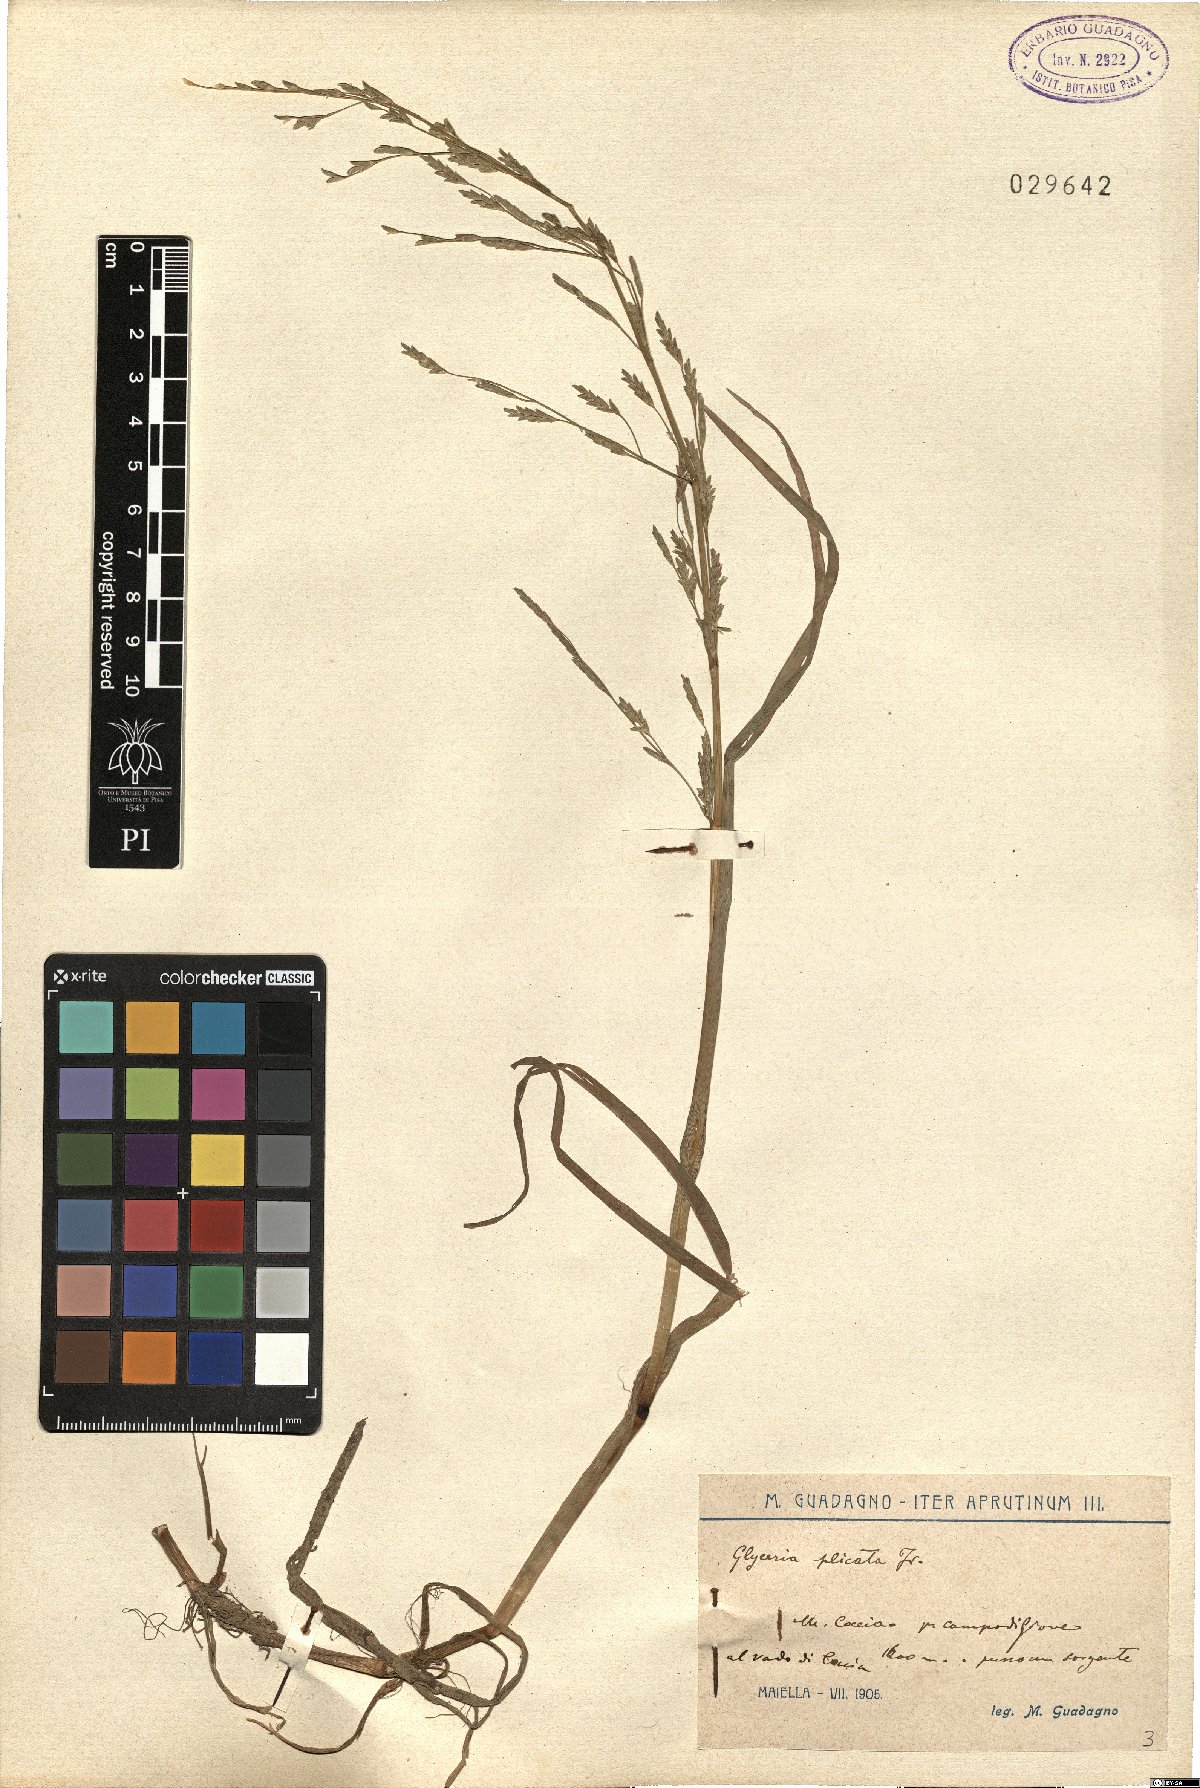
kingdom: Plantae
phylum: Tracheophyta
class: Liliopsida
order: Poales
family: Poaceae
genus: Glyceria
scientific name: Glyceria notata
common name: Plicate sweet-grass
